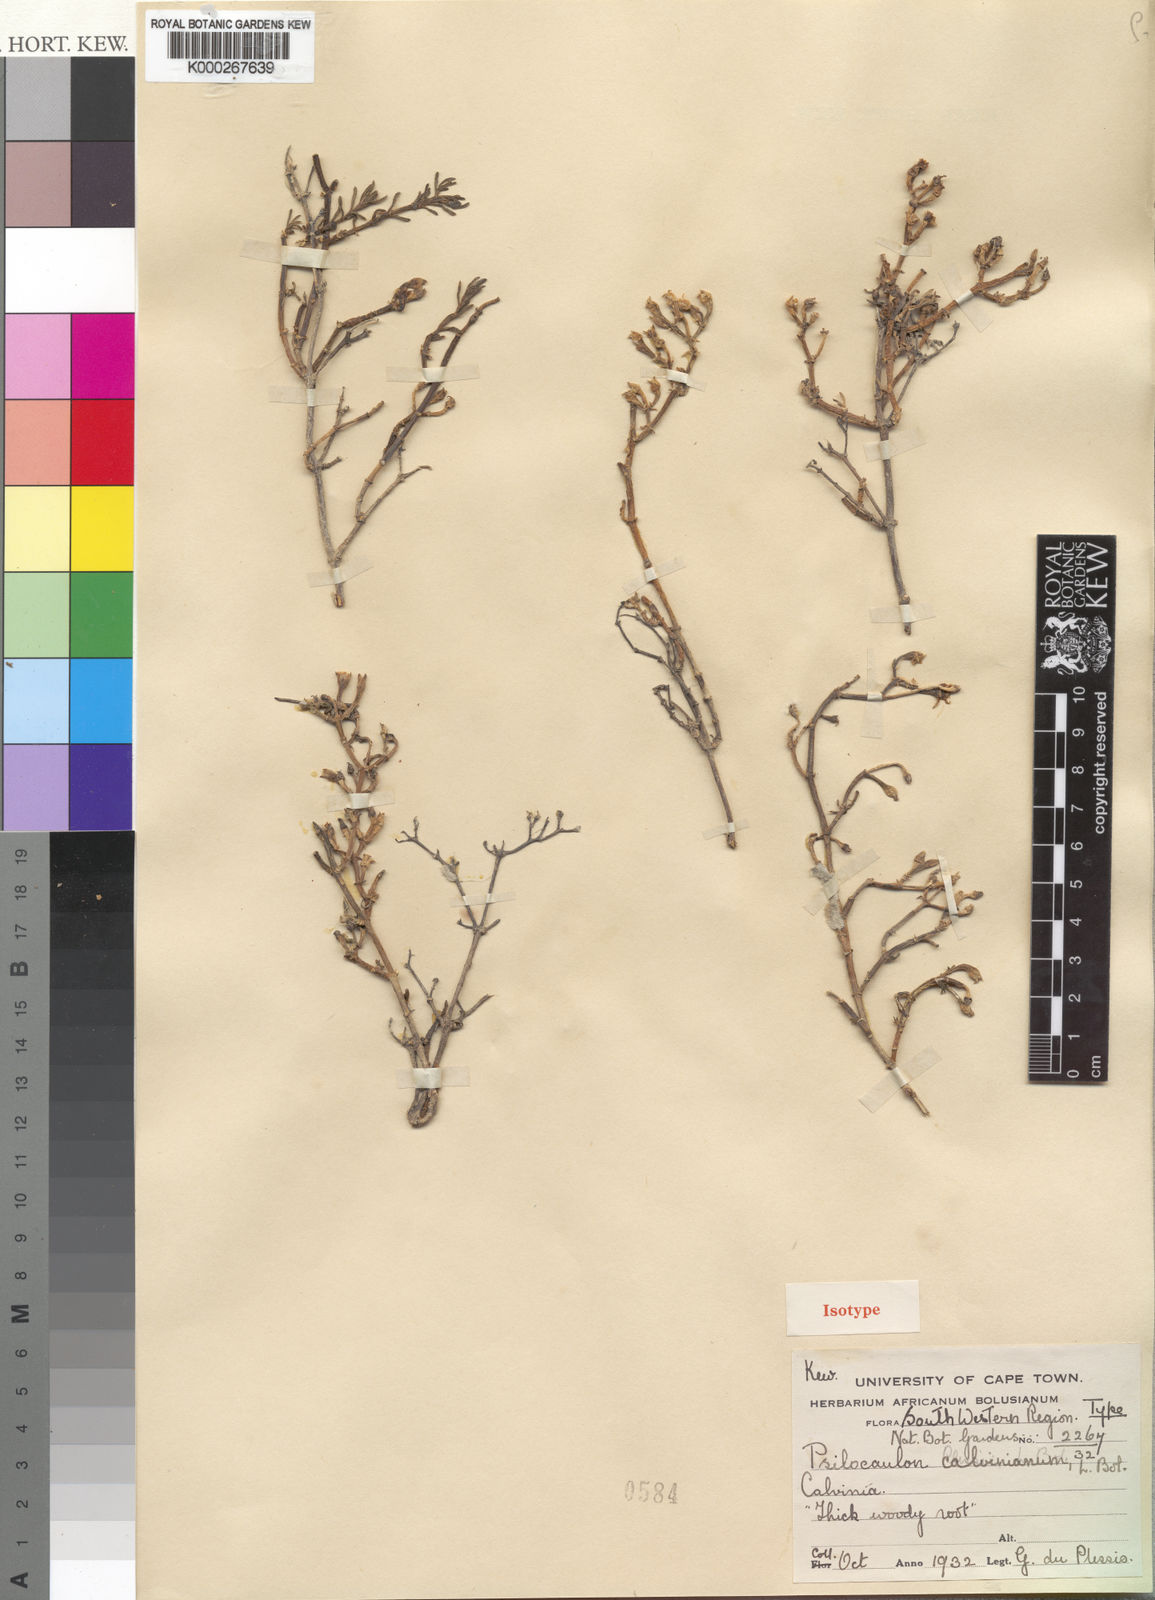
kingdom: Plantae
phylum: Tracheophyta
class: Magnoliopsida
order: Caryophyllales
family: Aizoaceae
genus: Mesembryanthemum
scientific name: Mesembryanthemum junceum
